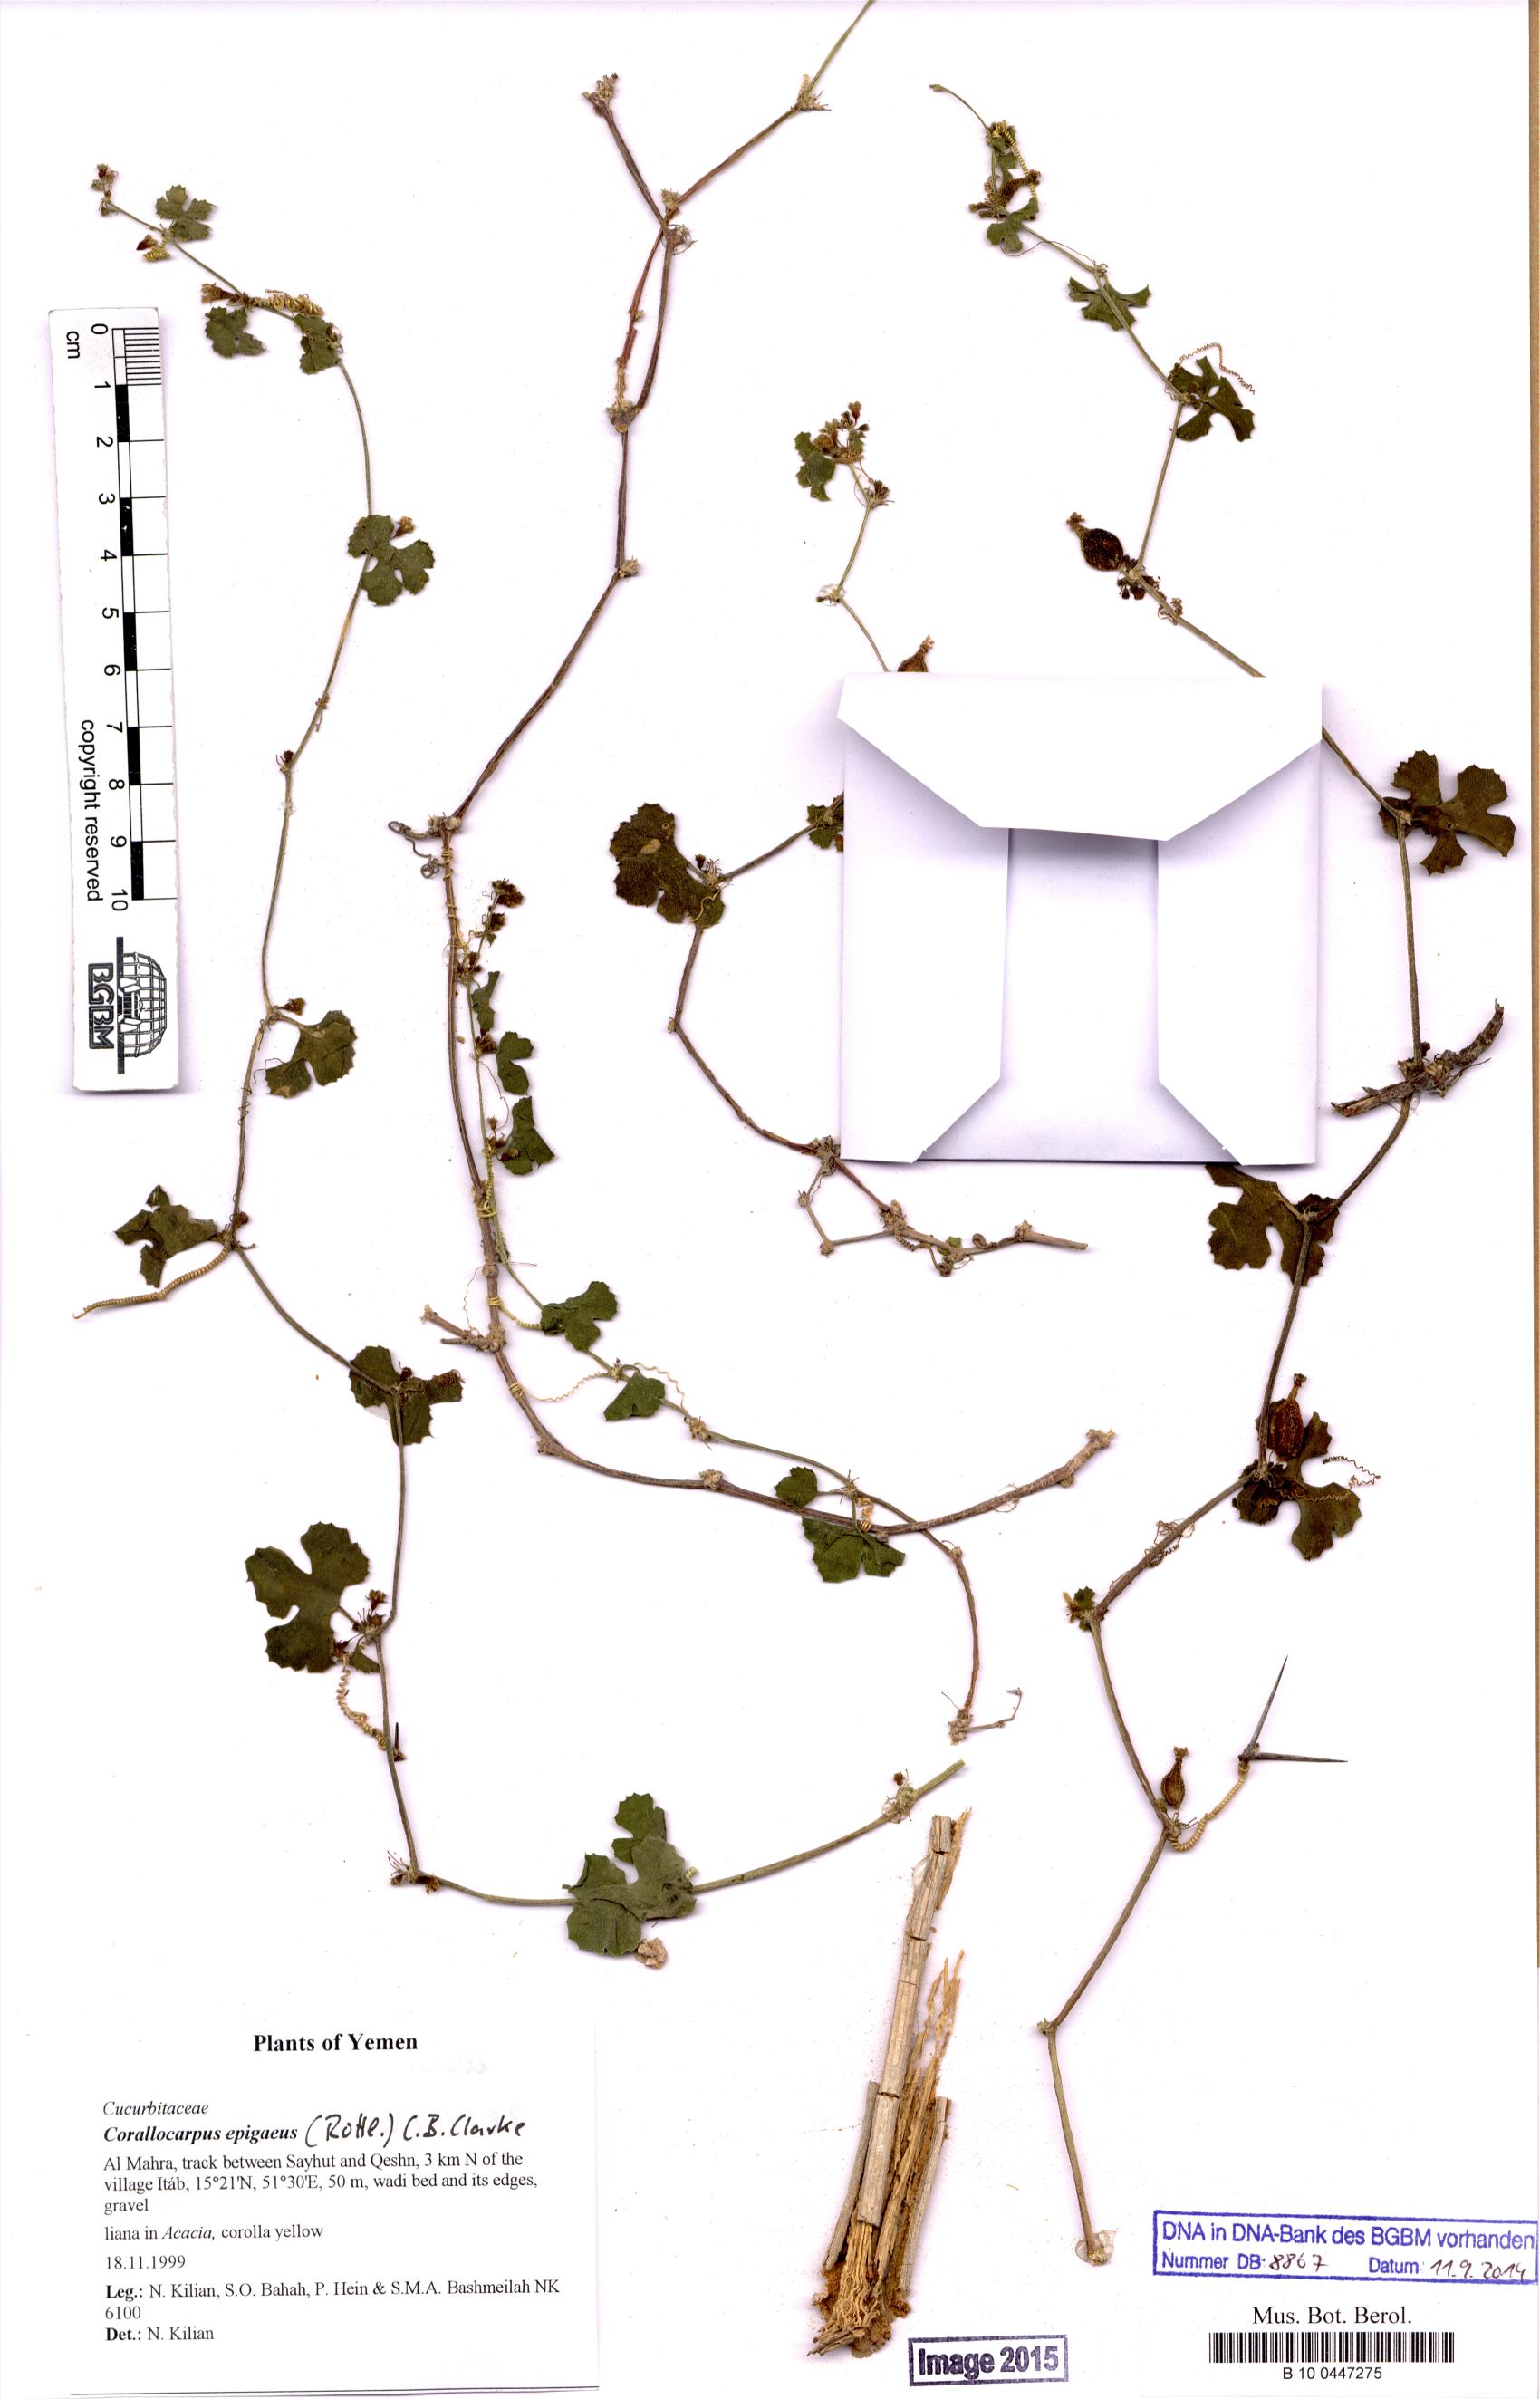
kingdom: Plantae
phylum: Tracheophyta
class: Magnoliopsida
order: Cucurbitales
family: Cucurbitaceae
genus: Corallocarpus
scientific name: Corallocarpus epigaeus
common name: Indian bryonia
